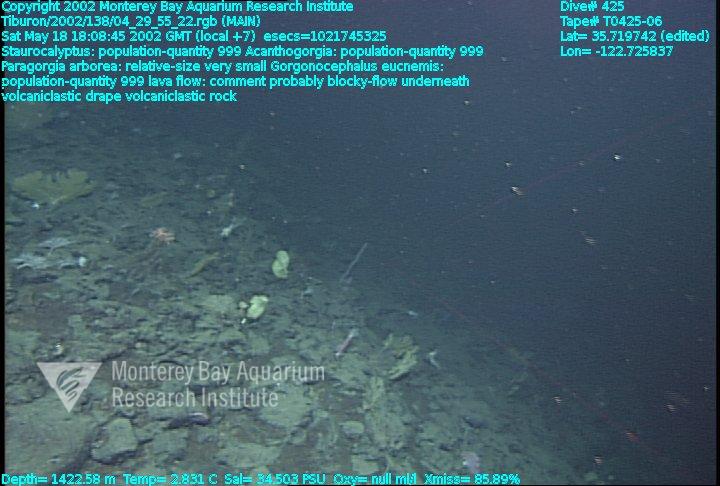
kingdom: Animalia
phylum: Porifera
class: Hexactinellida
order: Lyssacinosida
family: Rossellidae
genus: Staurocalyptus
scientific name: Staurocalyptus
